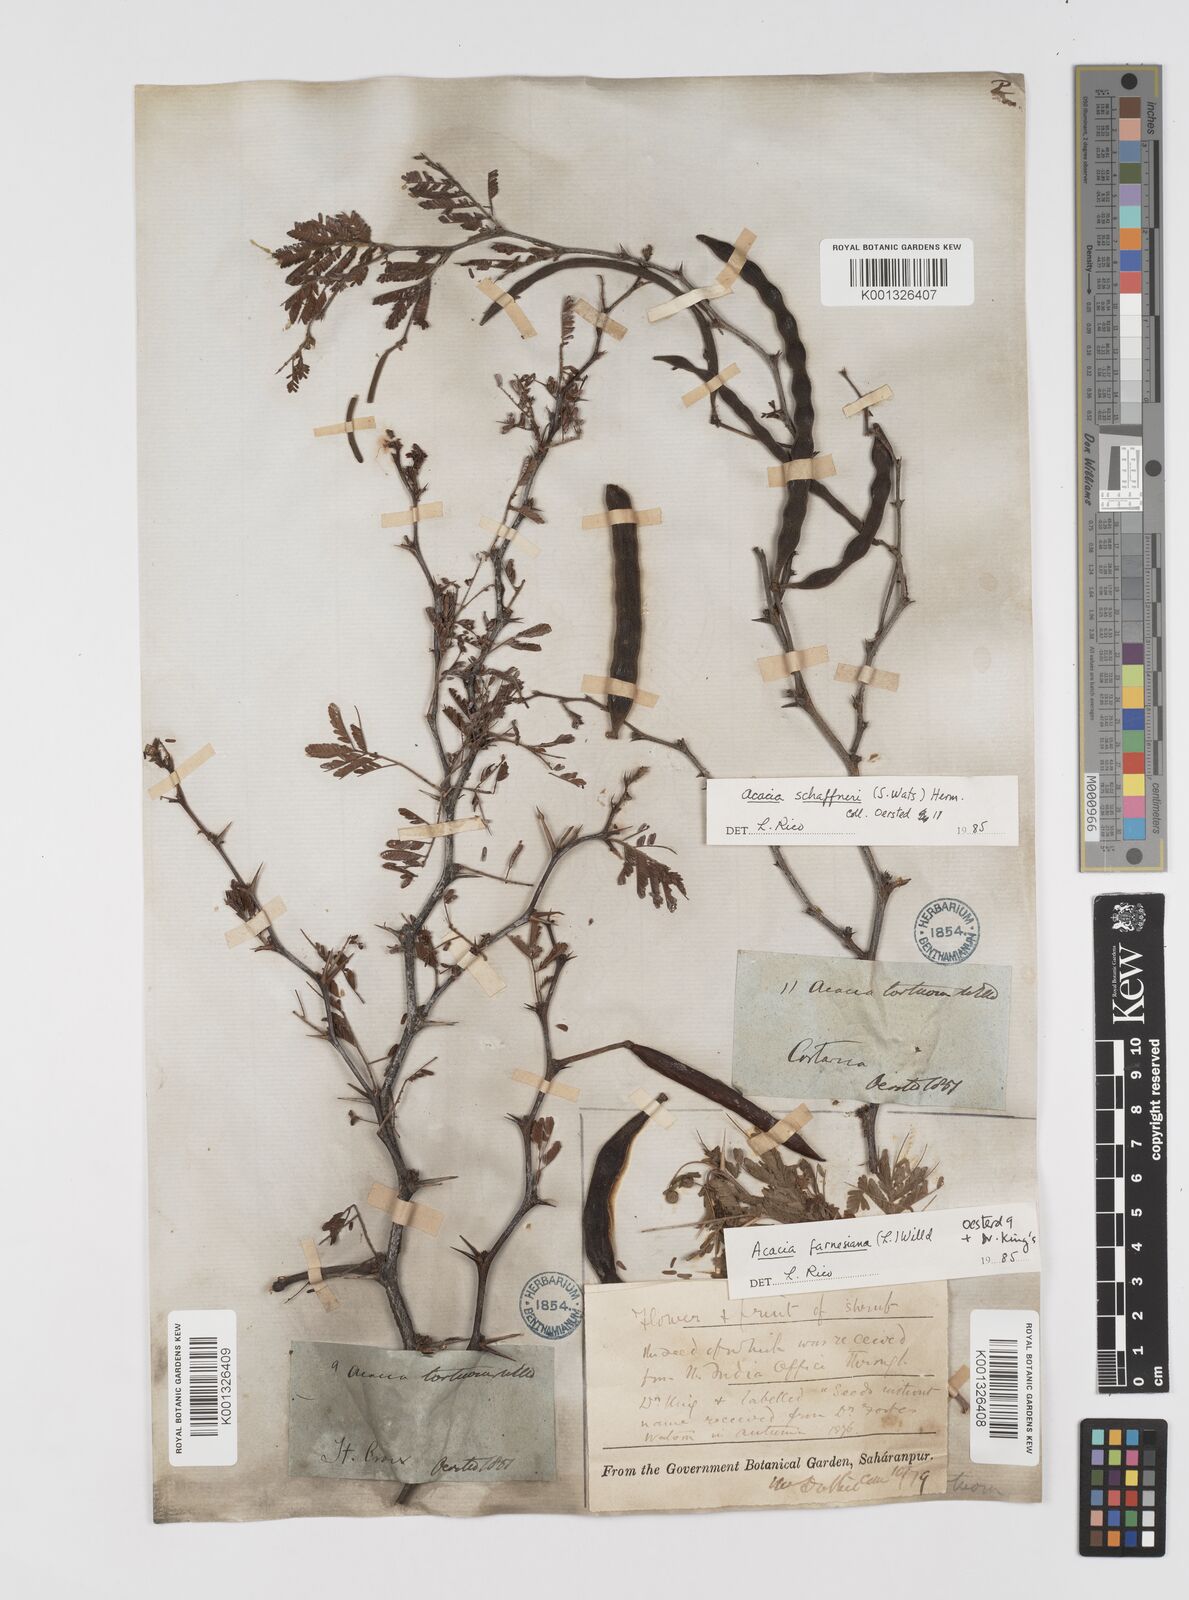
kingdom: Plantae
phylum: Tracheophyta
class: Magnoliopsida
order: Fabales
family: Fabaceae
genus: Vachellia
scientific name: Vachellia schaffneri
